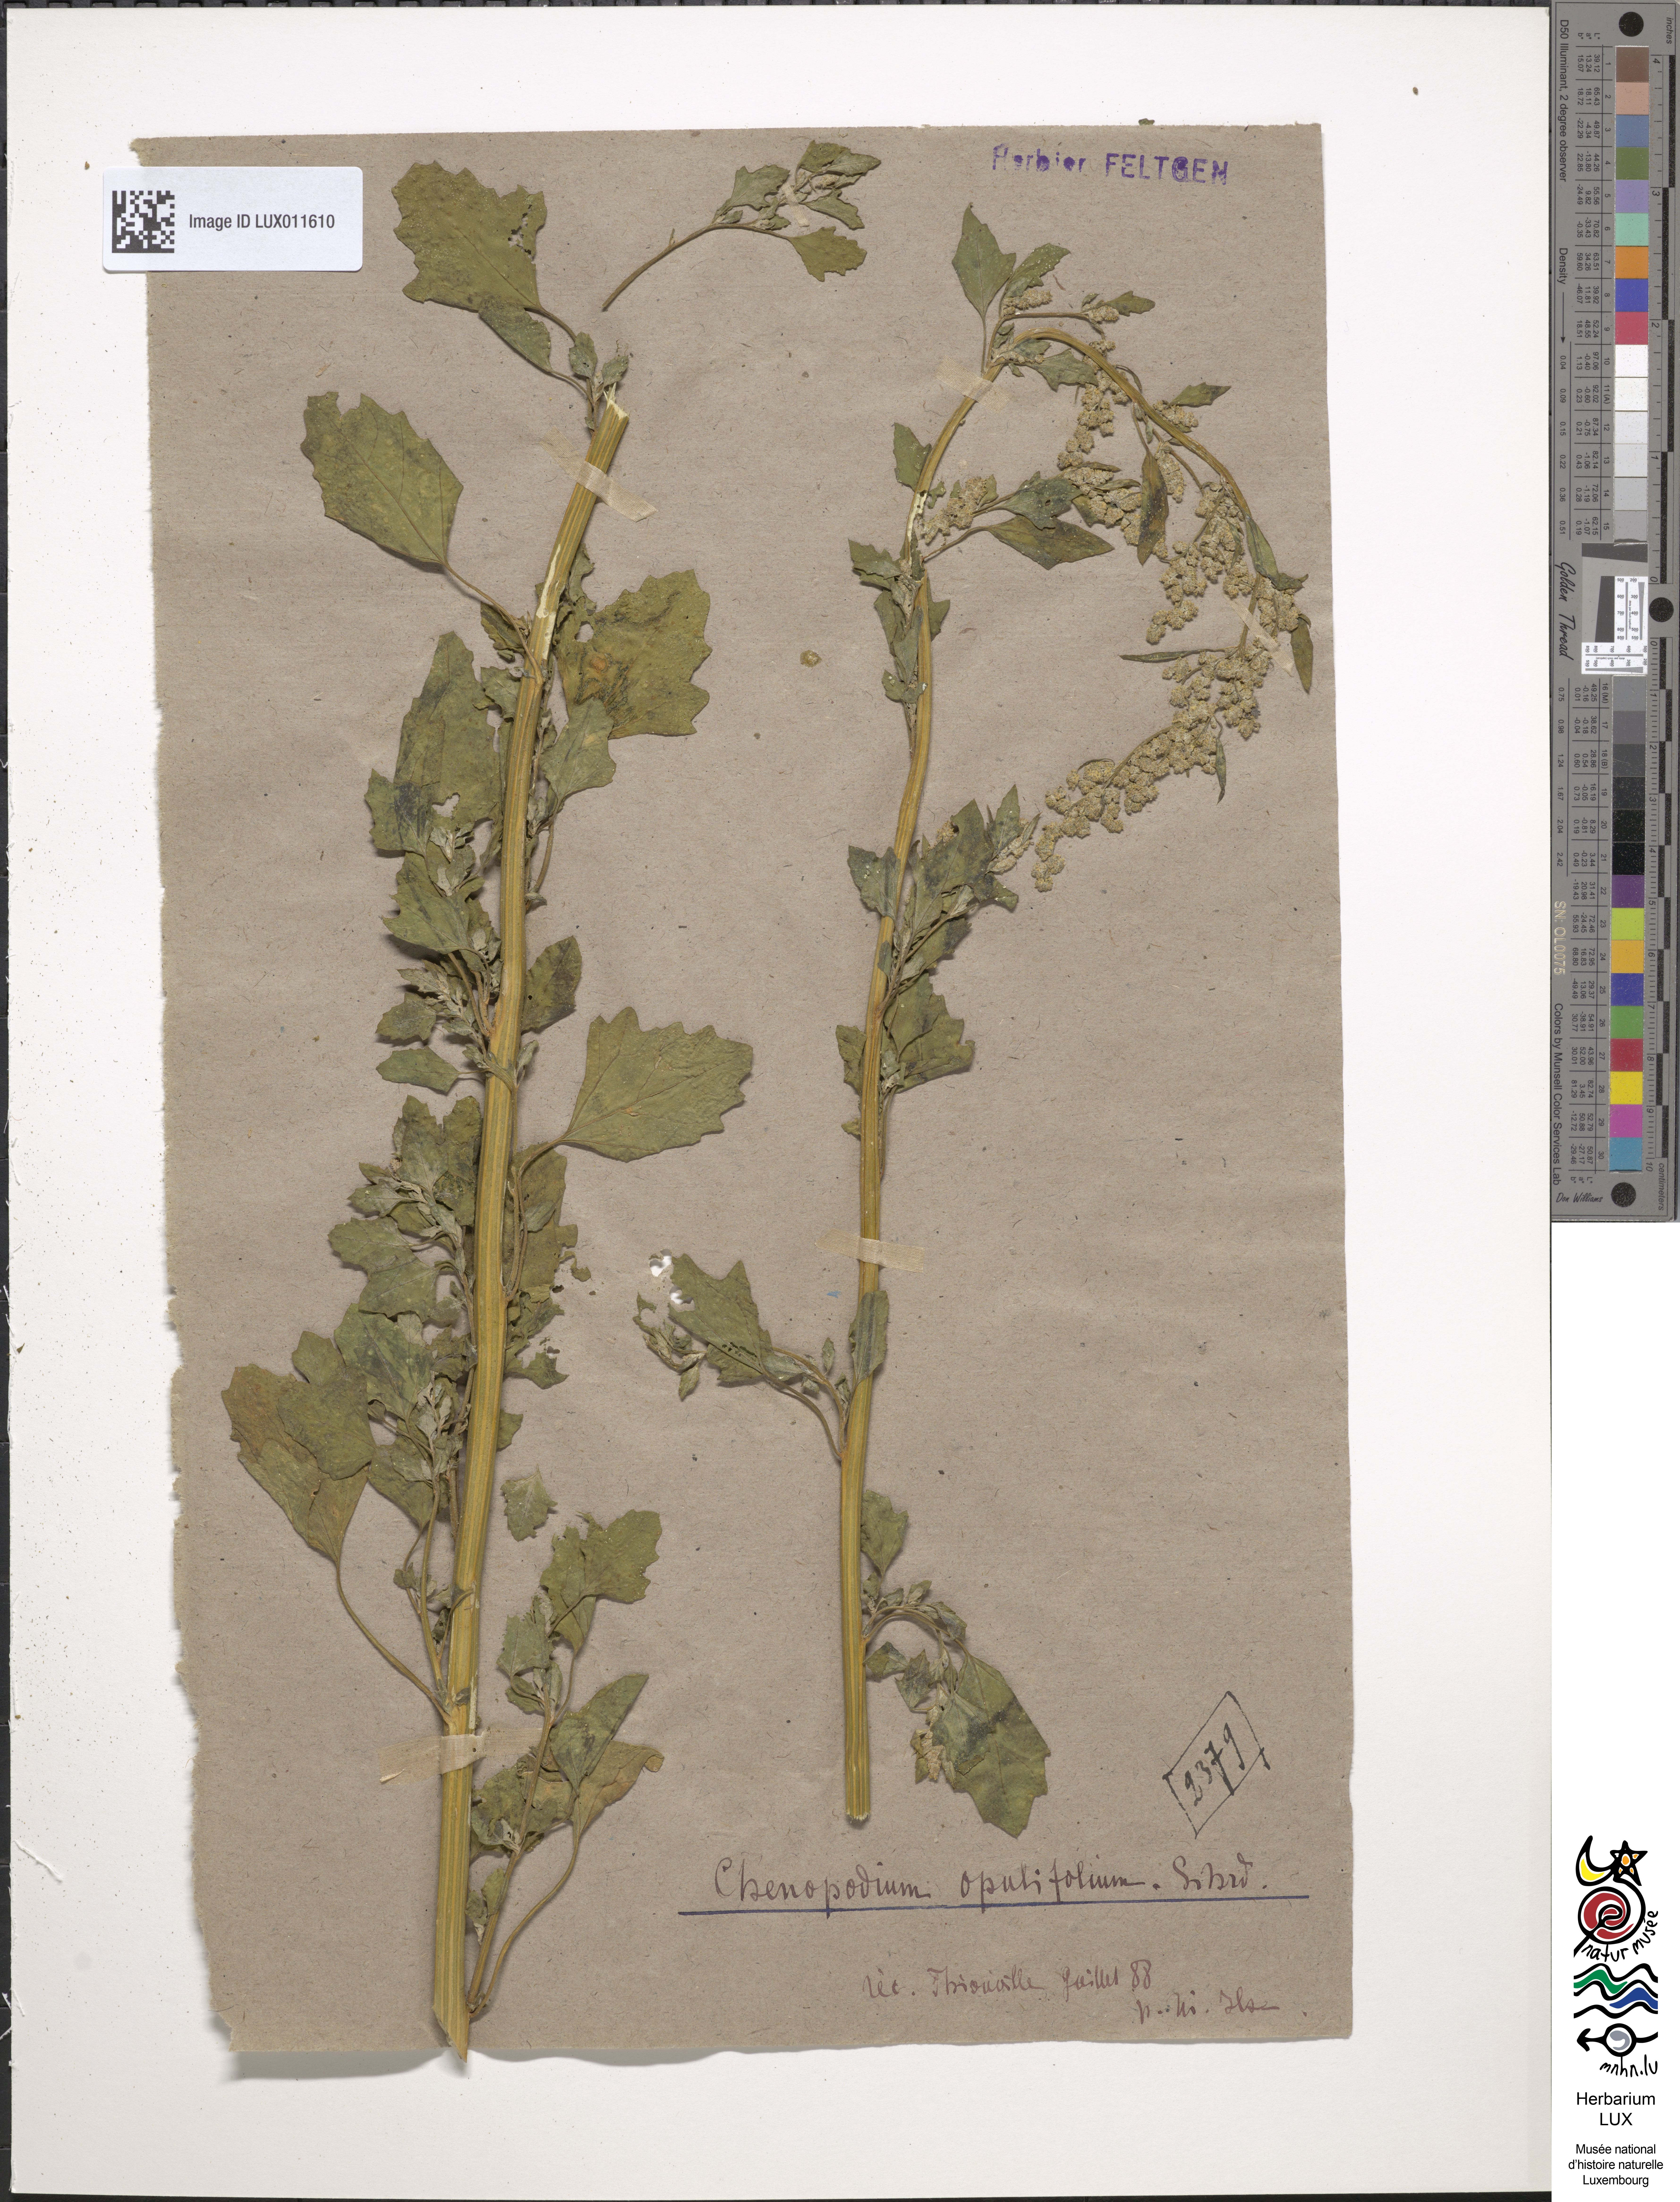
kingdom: Plantae
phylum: Tracheophyta
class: Magnoliopsida
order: Caryophyllales
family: Amaranthaceae
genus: Chenopodium
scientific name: Chenopodium opulifolium
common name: Grey goosefoot
